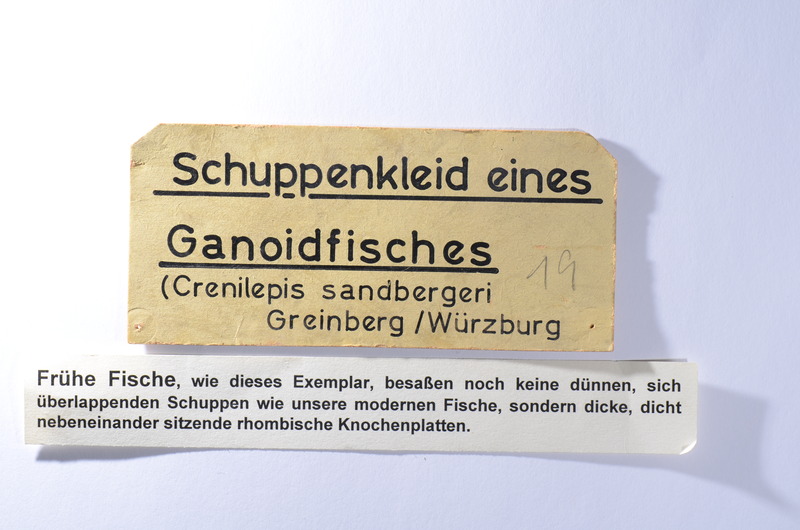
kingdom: Animalia
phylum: Chordata
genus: Crenilepis
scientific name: Crenilepis sandbergeri
